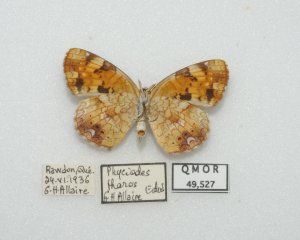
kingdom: Animalia
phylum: Arthropoda
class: Insecta
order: Lepidoptera
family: Nymphalidae
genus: Phyciodes
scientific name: Phyciodes tharos
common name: Northern Crescent
